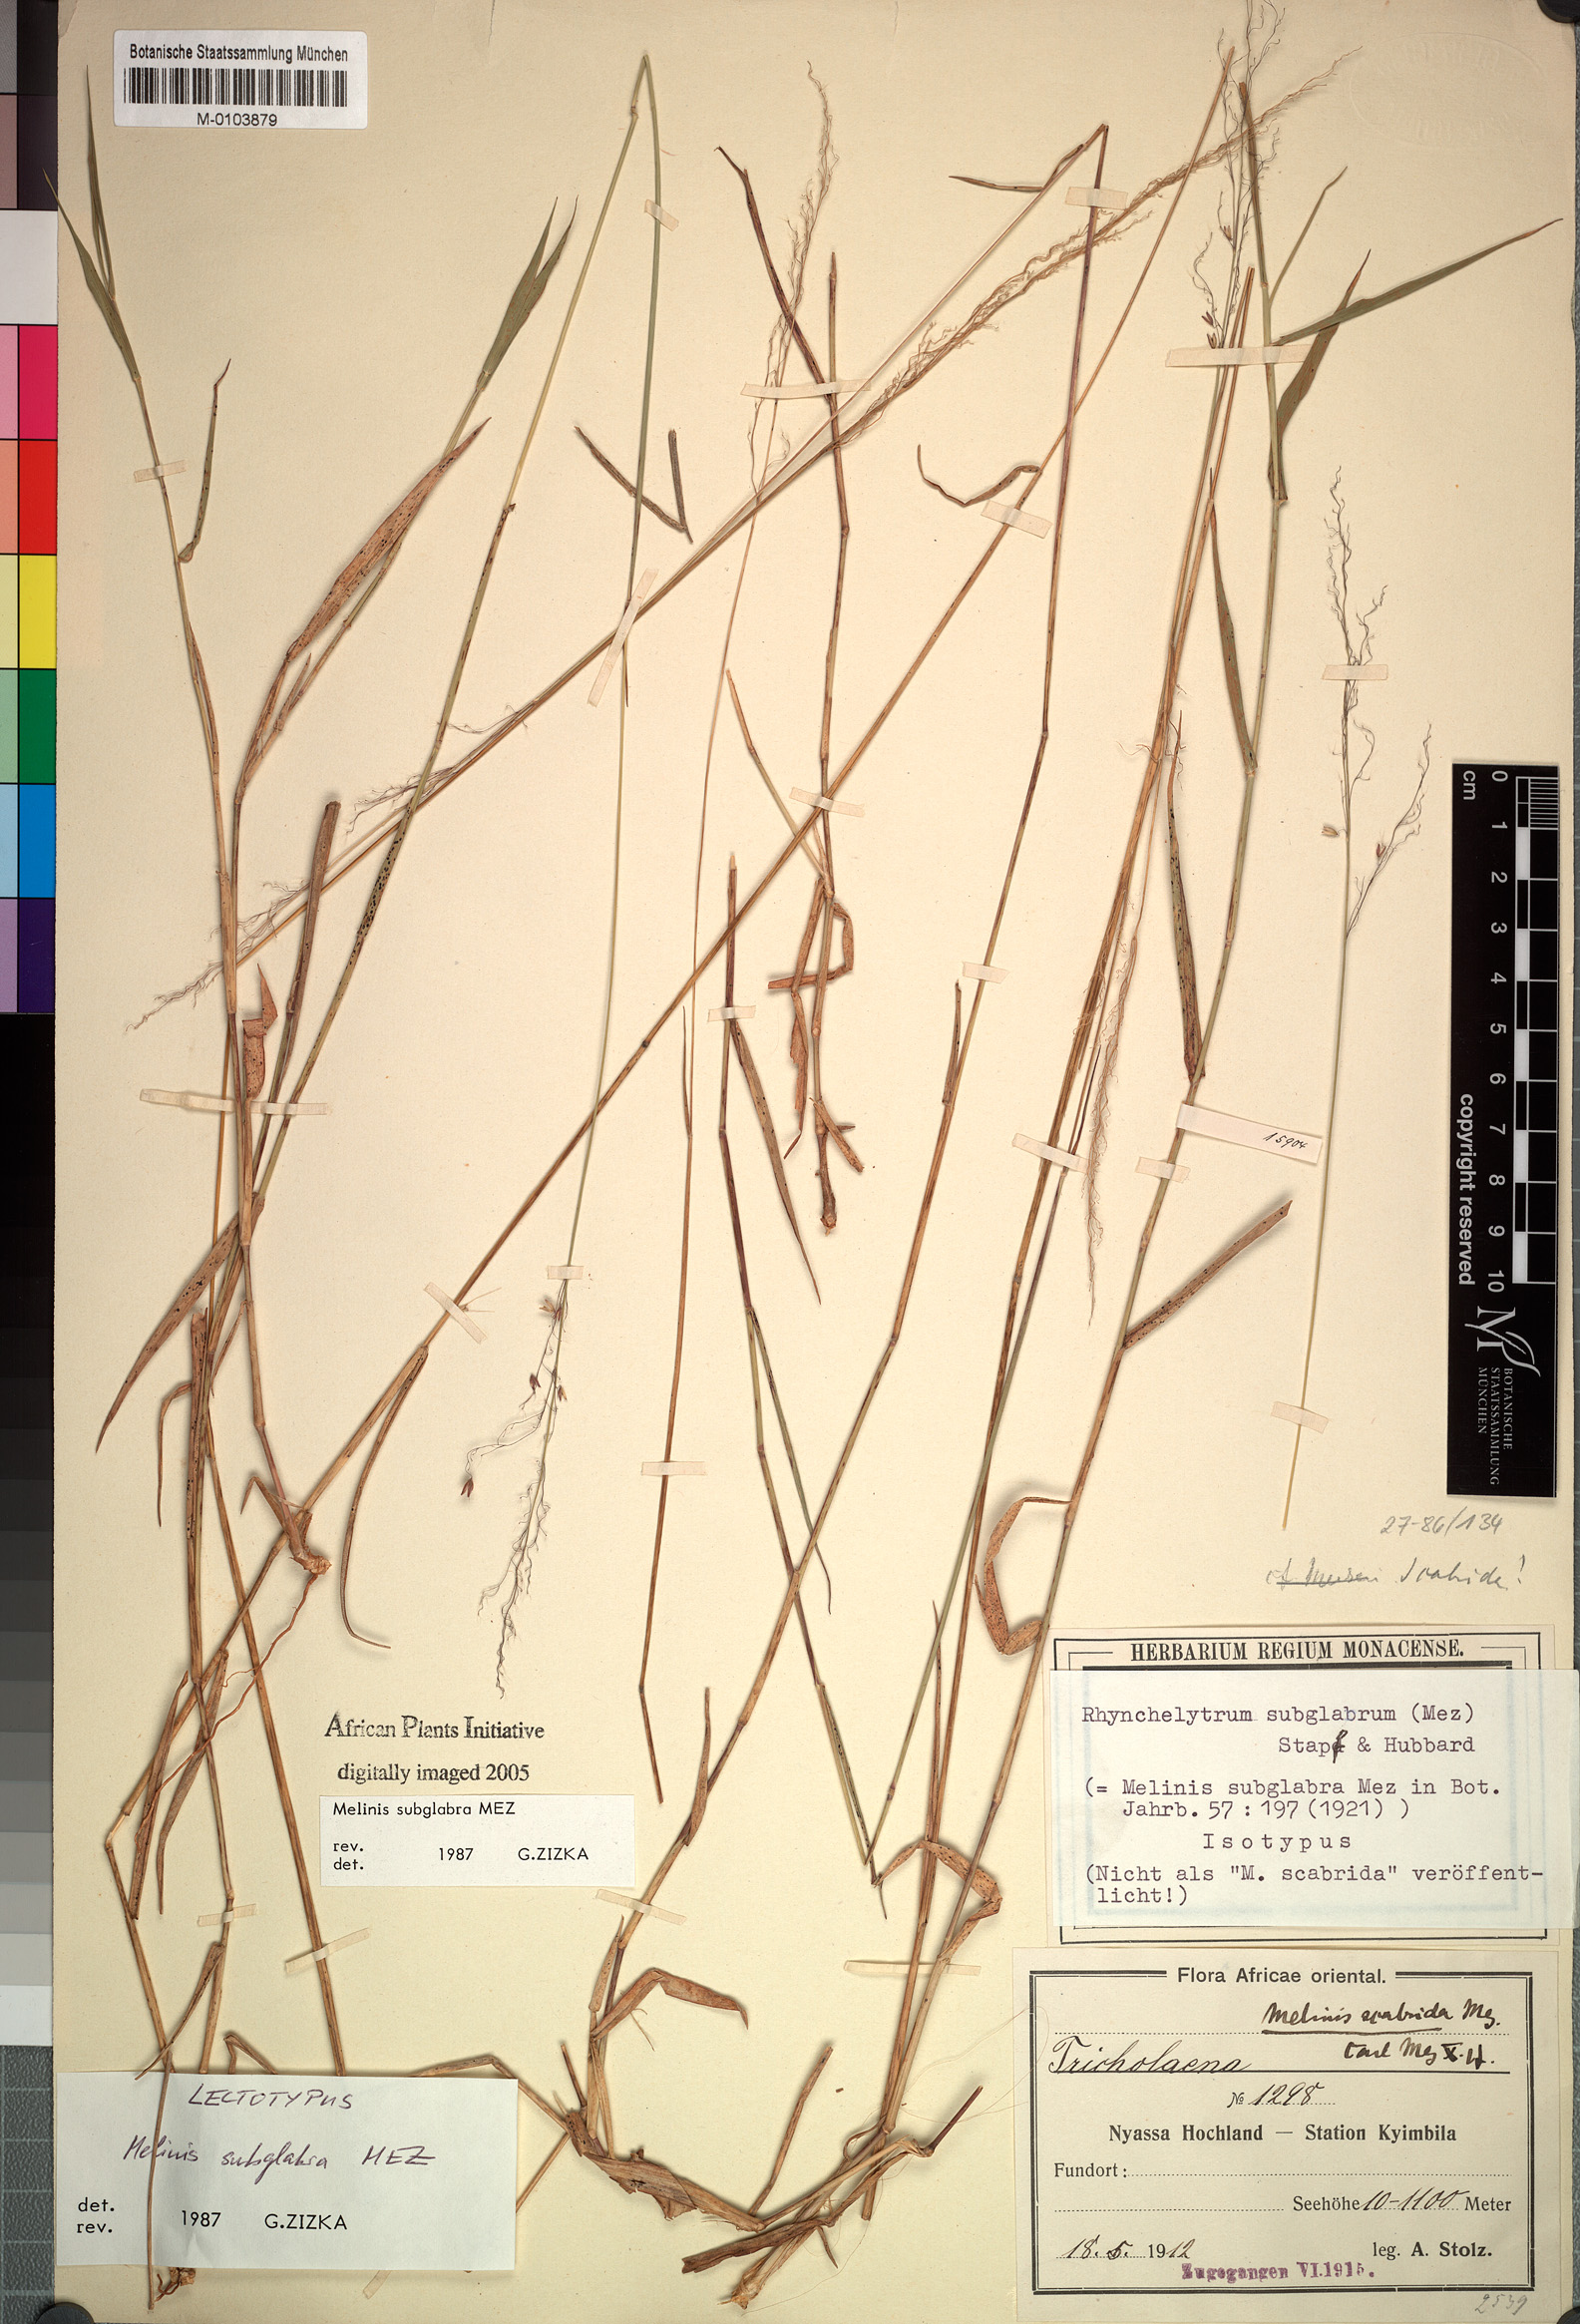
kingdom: Plantae
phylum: Tracheophyta
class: Liliopsida
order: Poales
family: Poaceae
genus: Melinis
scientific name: Melinis subglabra
